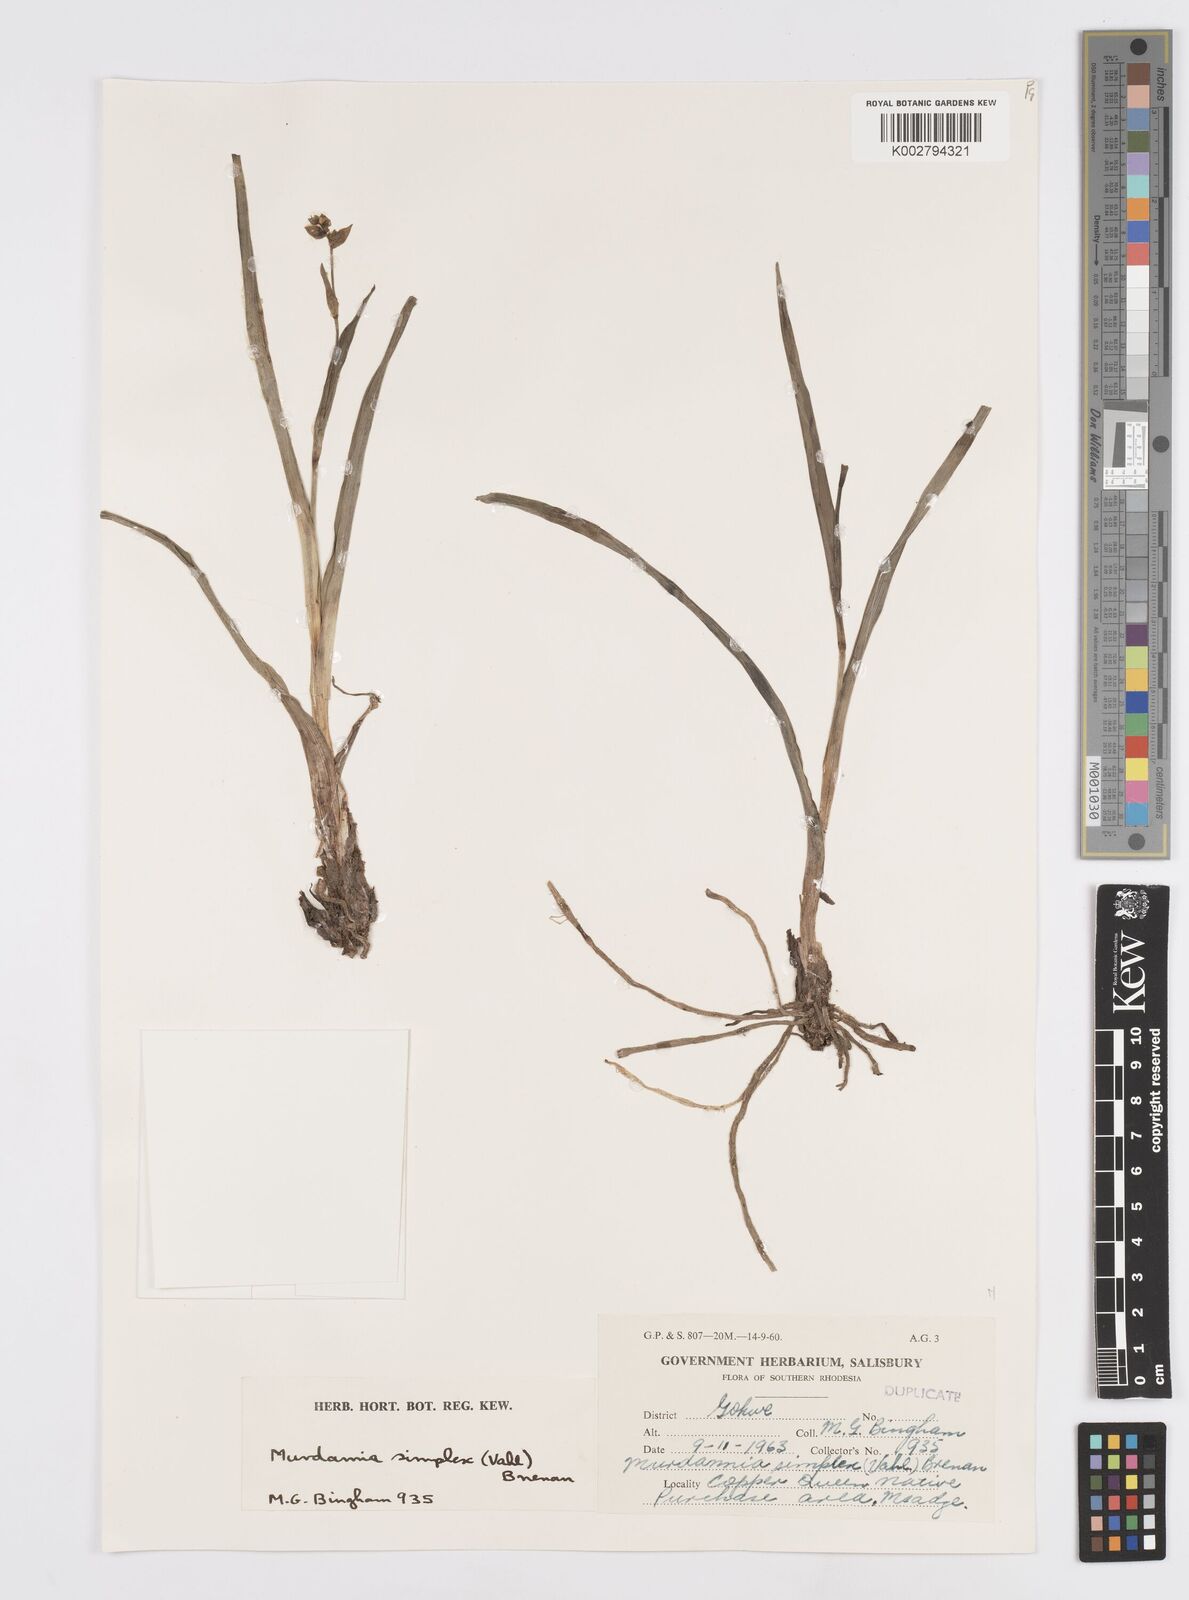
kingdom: Plantae
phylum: Tracheophyta
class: Liliopsida
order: Commelinales
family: Commelinaceae
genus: Murdannia
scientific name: Murdannia simplex
